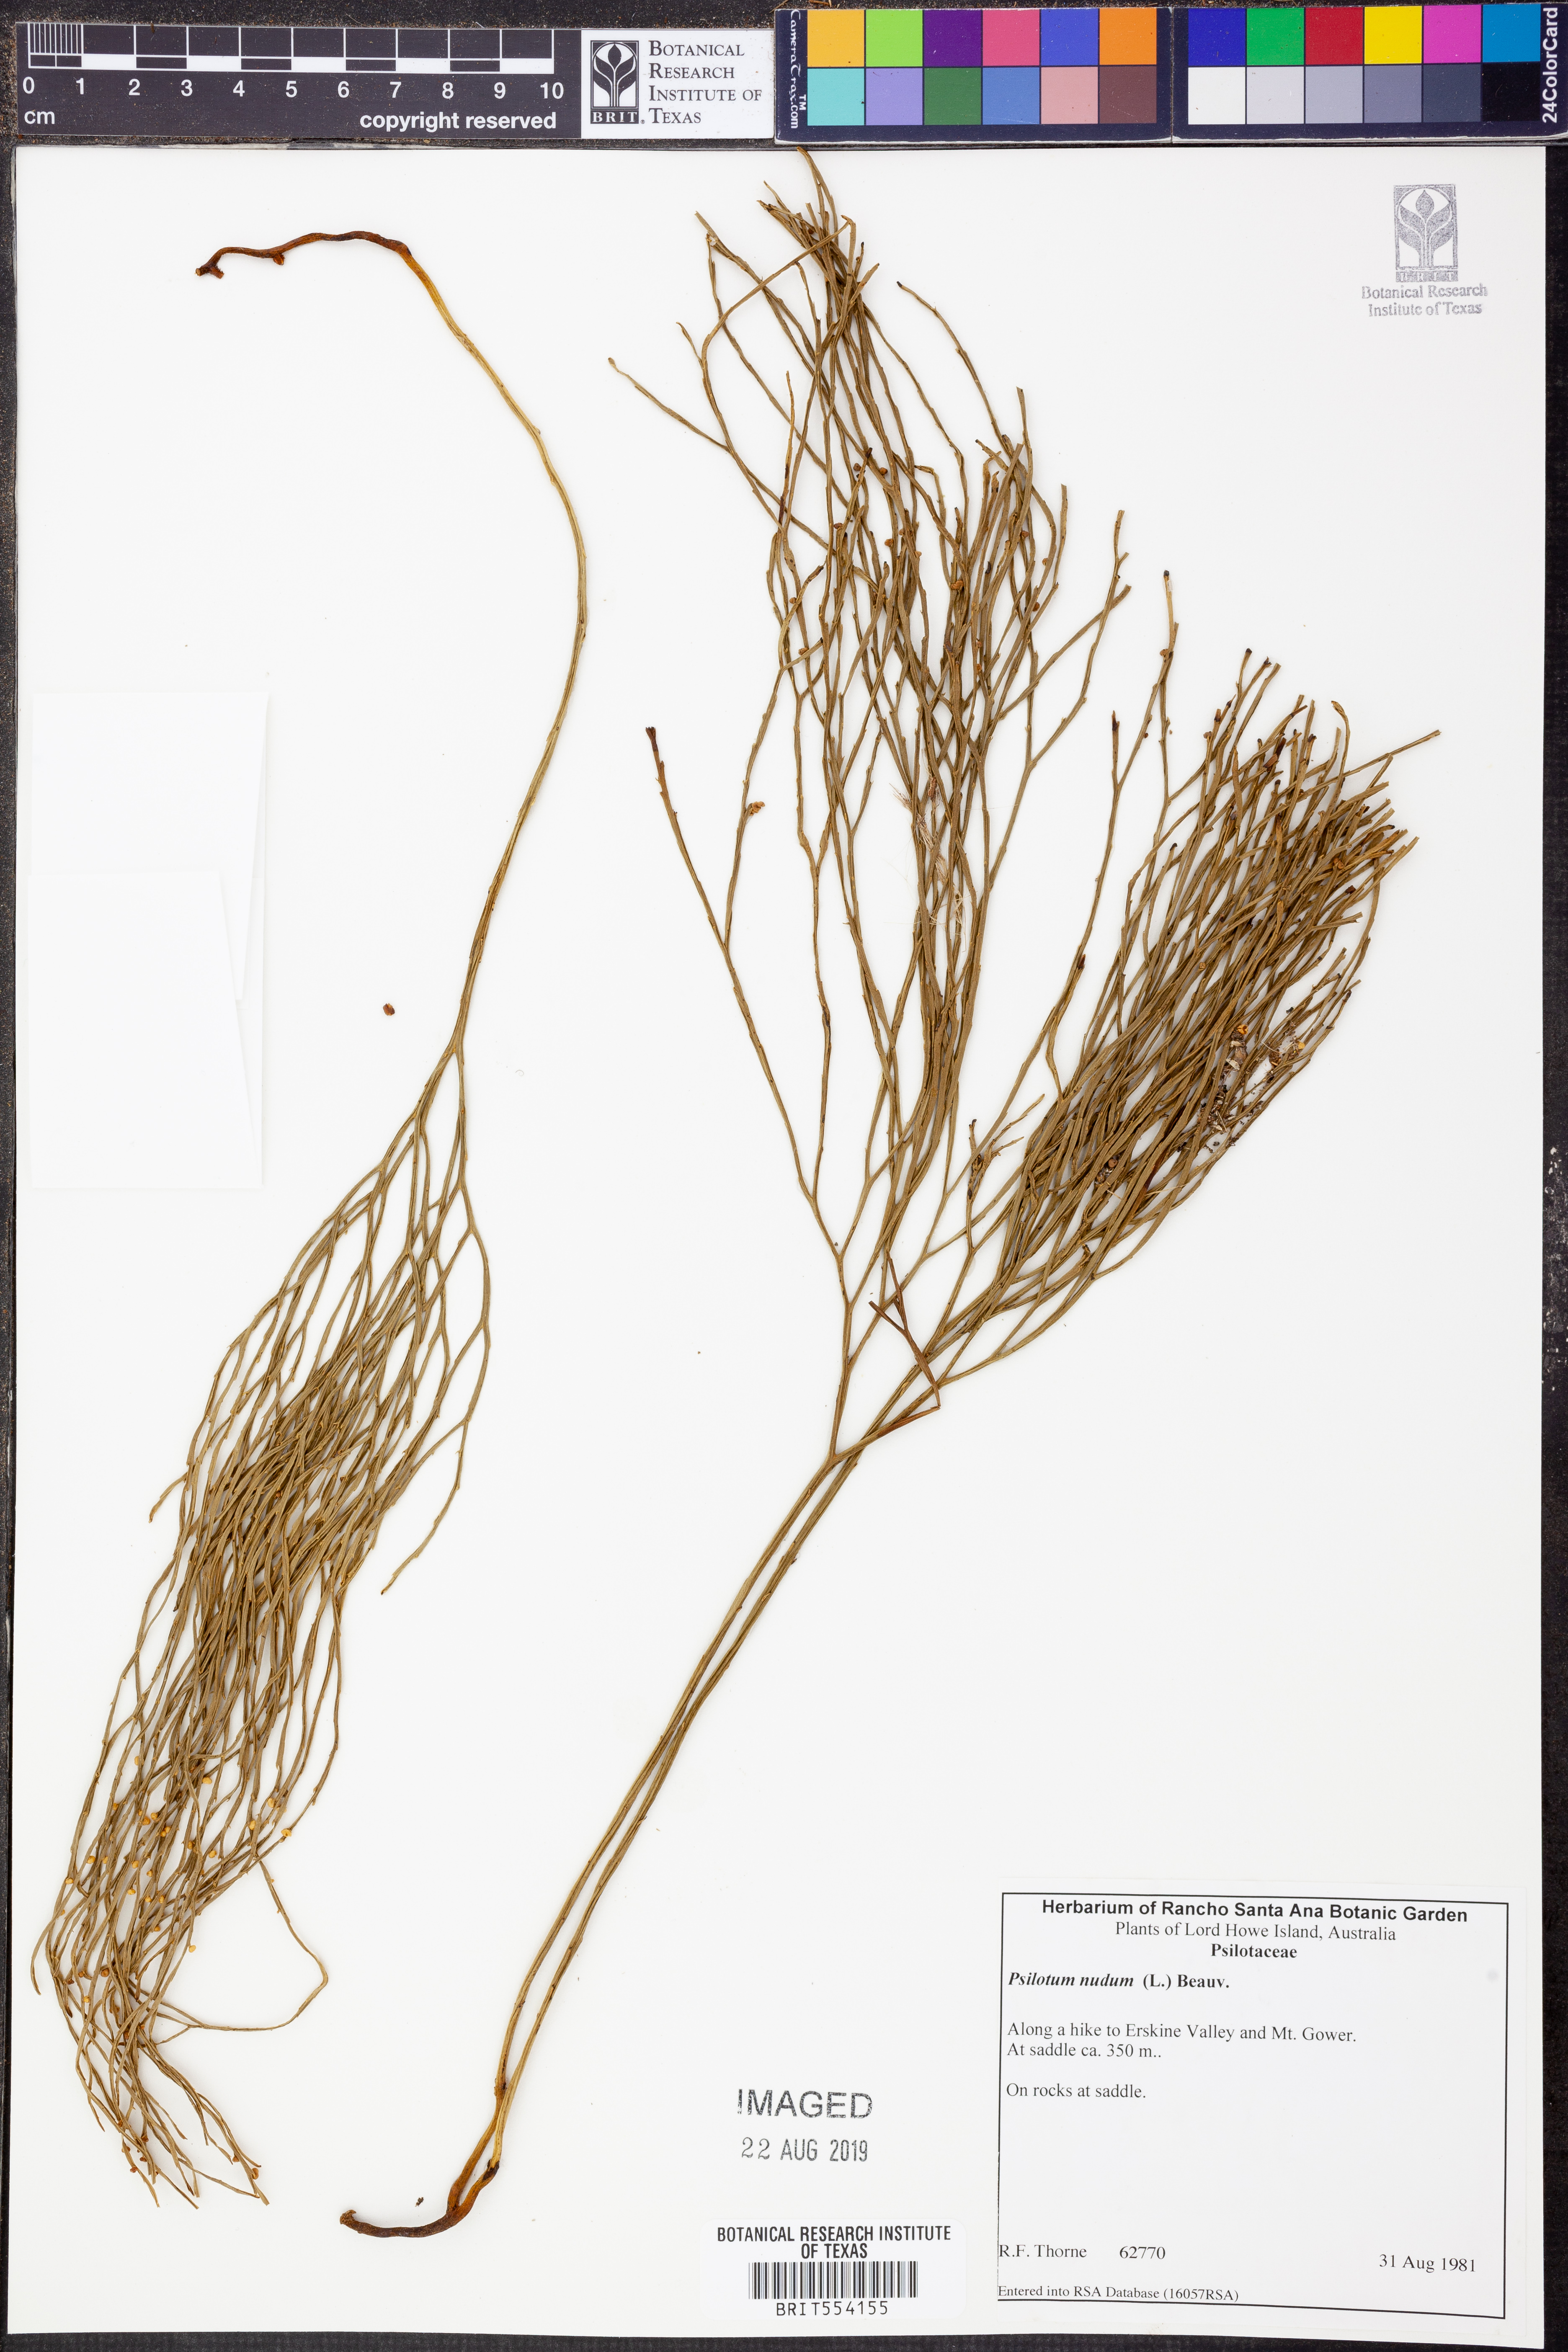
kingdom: Plantae
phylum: Tracheophyta
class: Polypodiopsida
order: Psilotales
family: Psilotaceae
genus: Psilotum
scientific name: Psilotum nudum
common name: Skeleton fork fern
